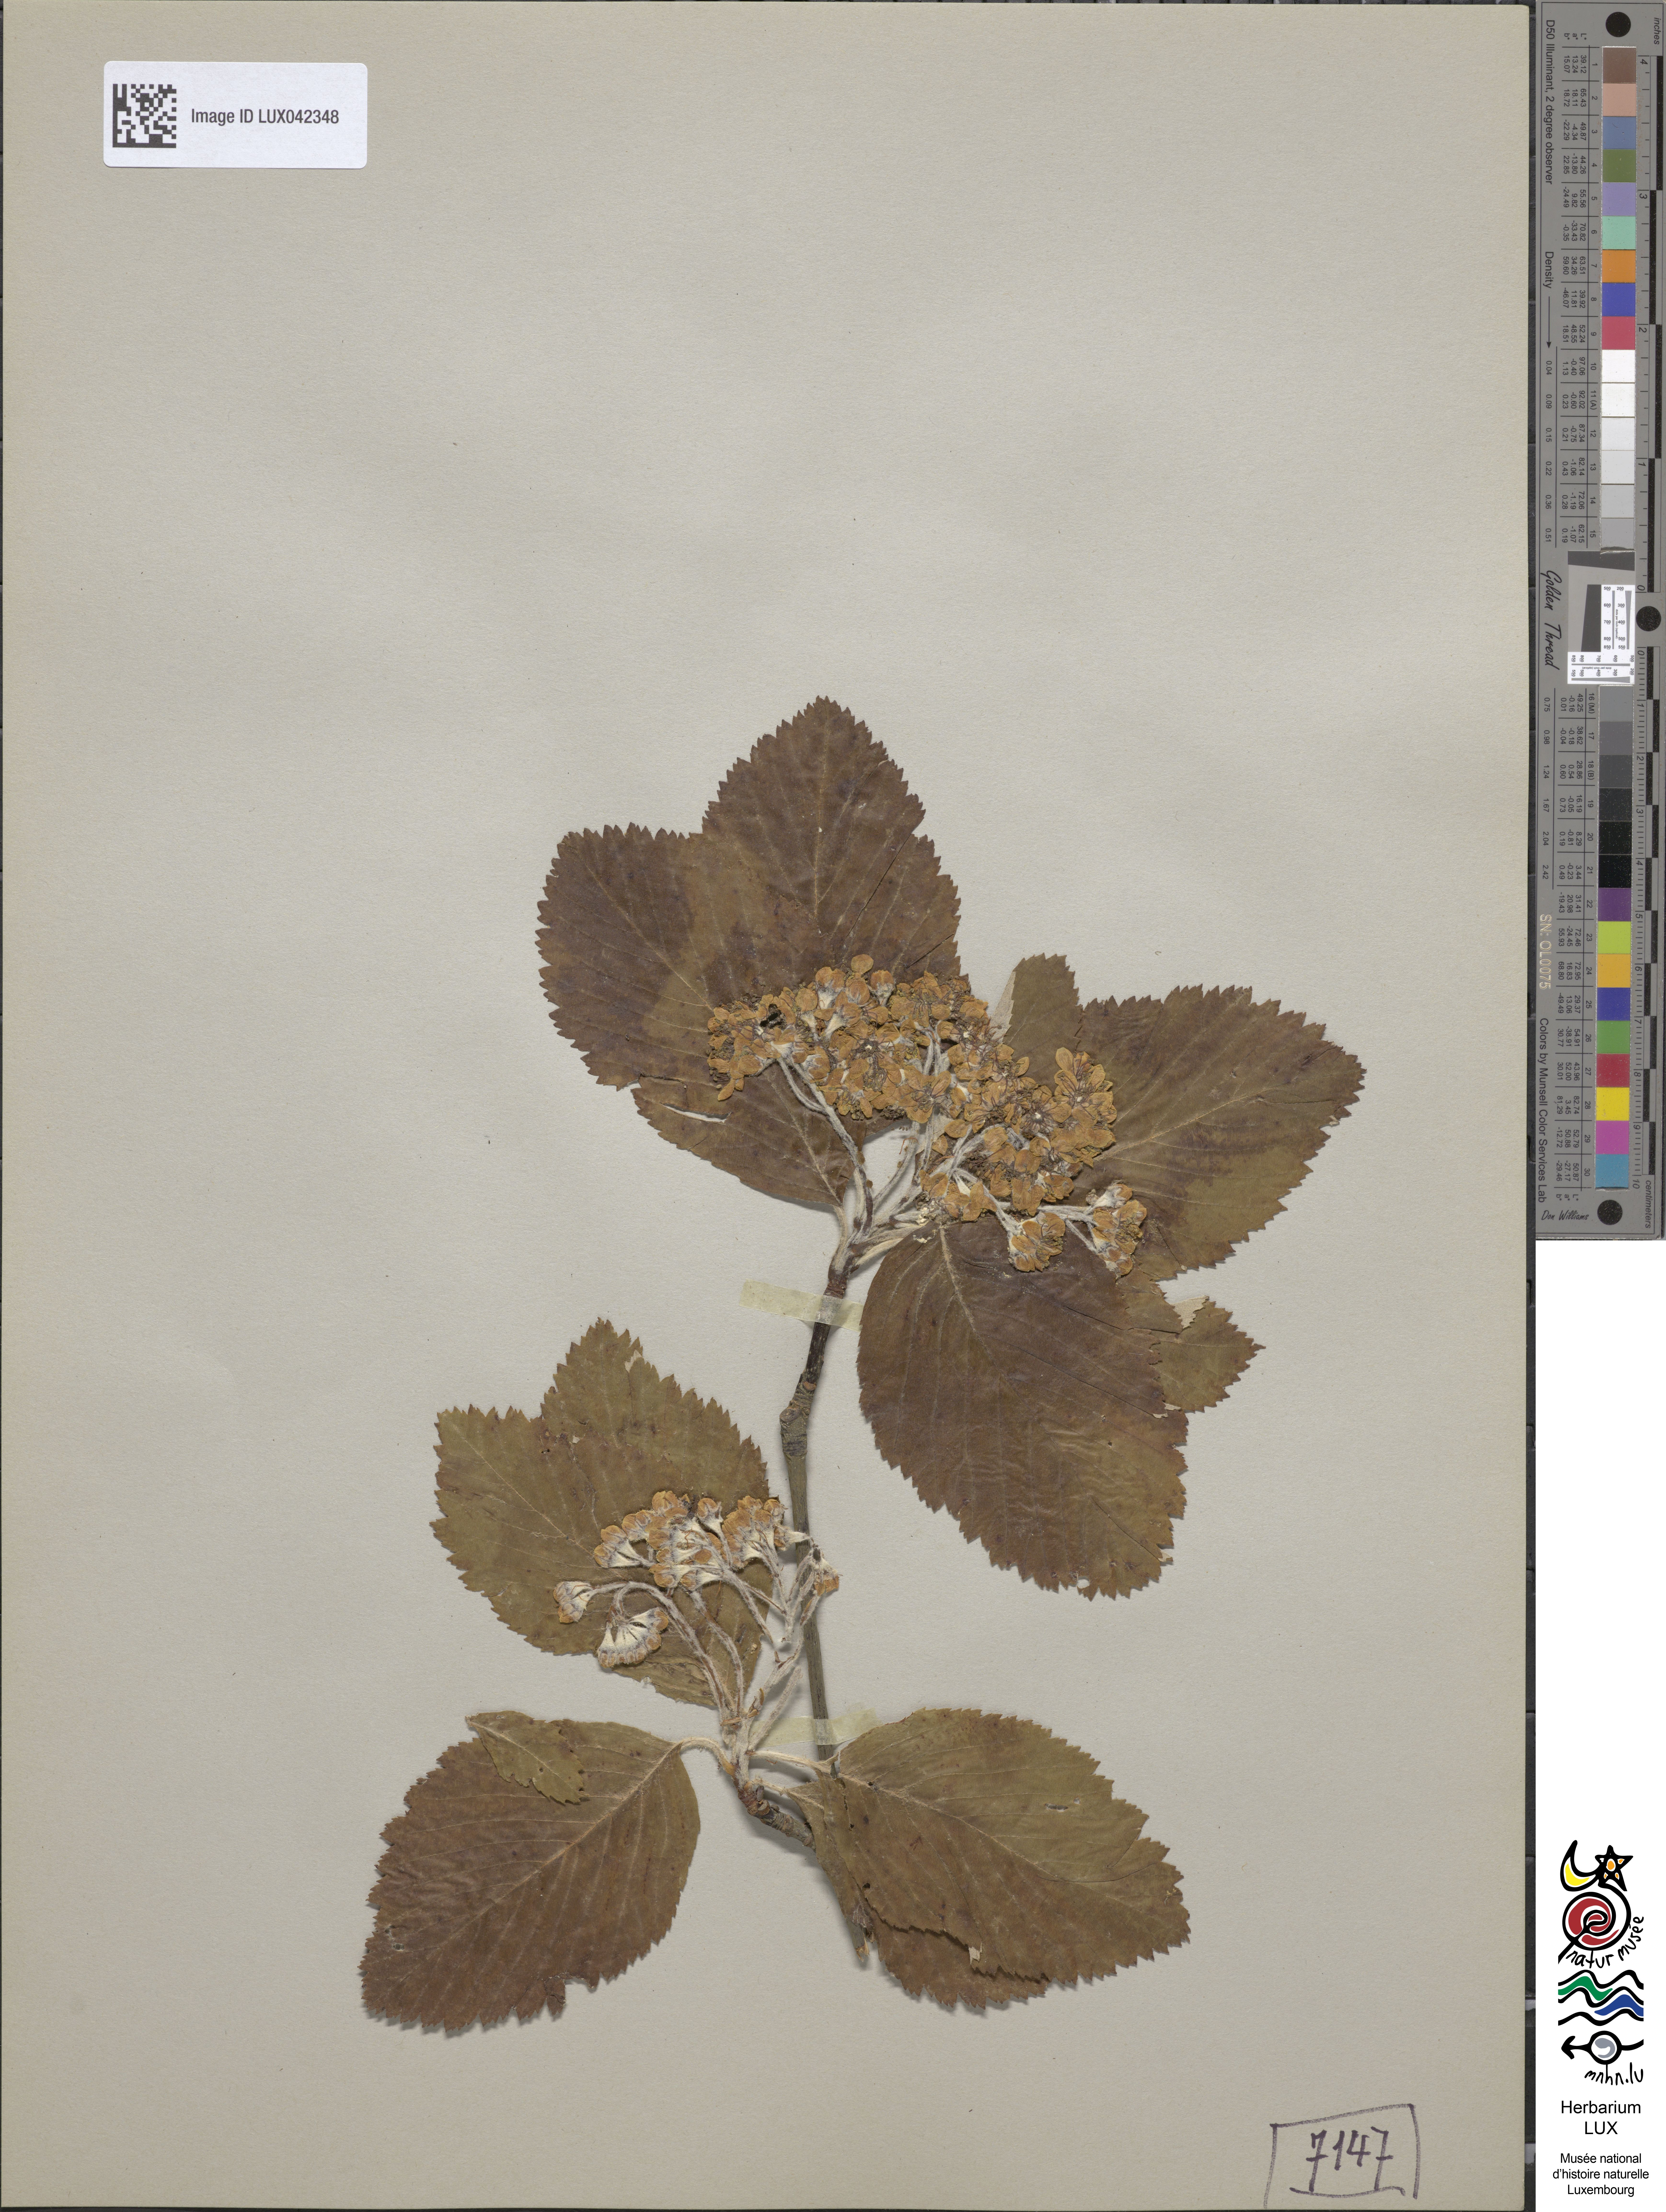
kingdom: Plantae
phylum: Tracheophyta
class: Magnoliopsida
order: Rosales
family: Rosaceae
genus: Aria
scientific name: Aria edulis
